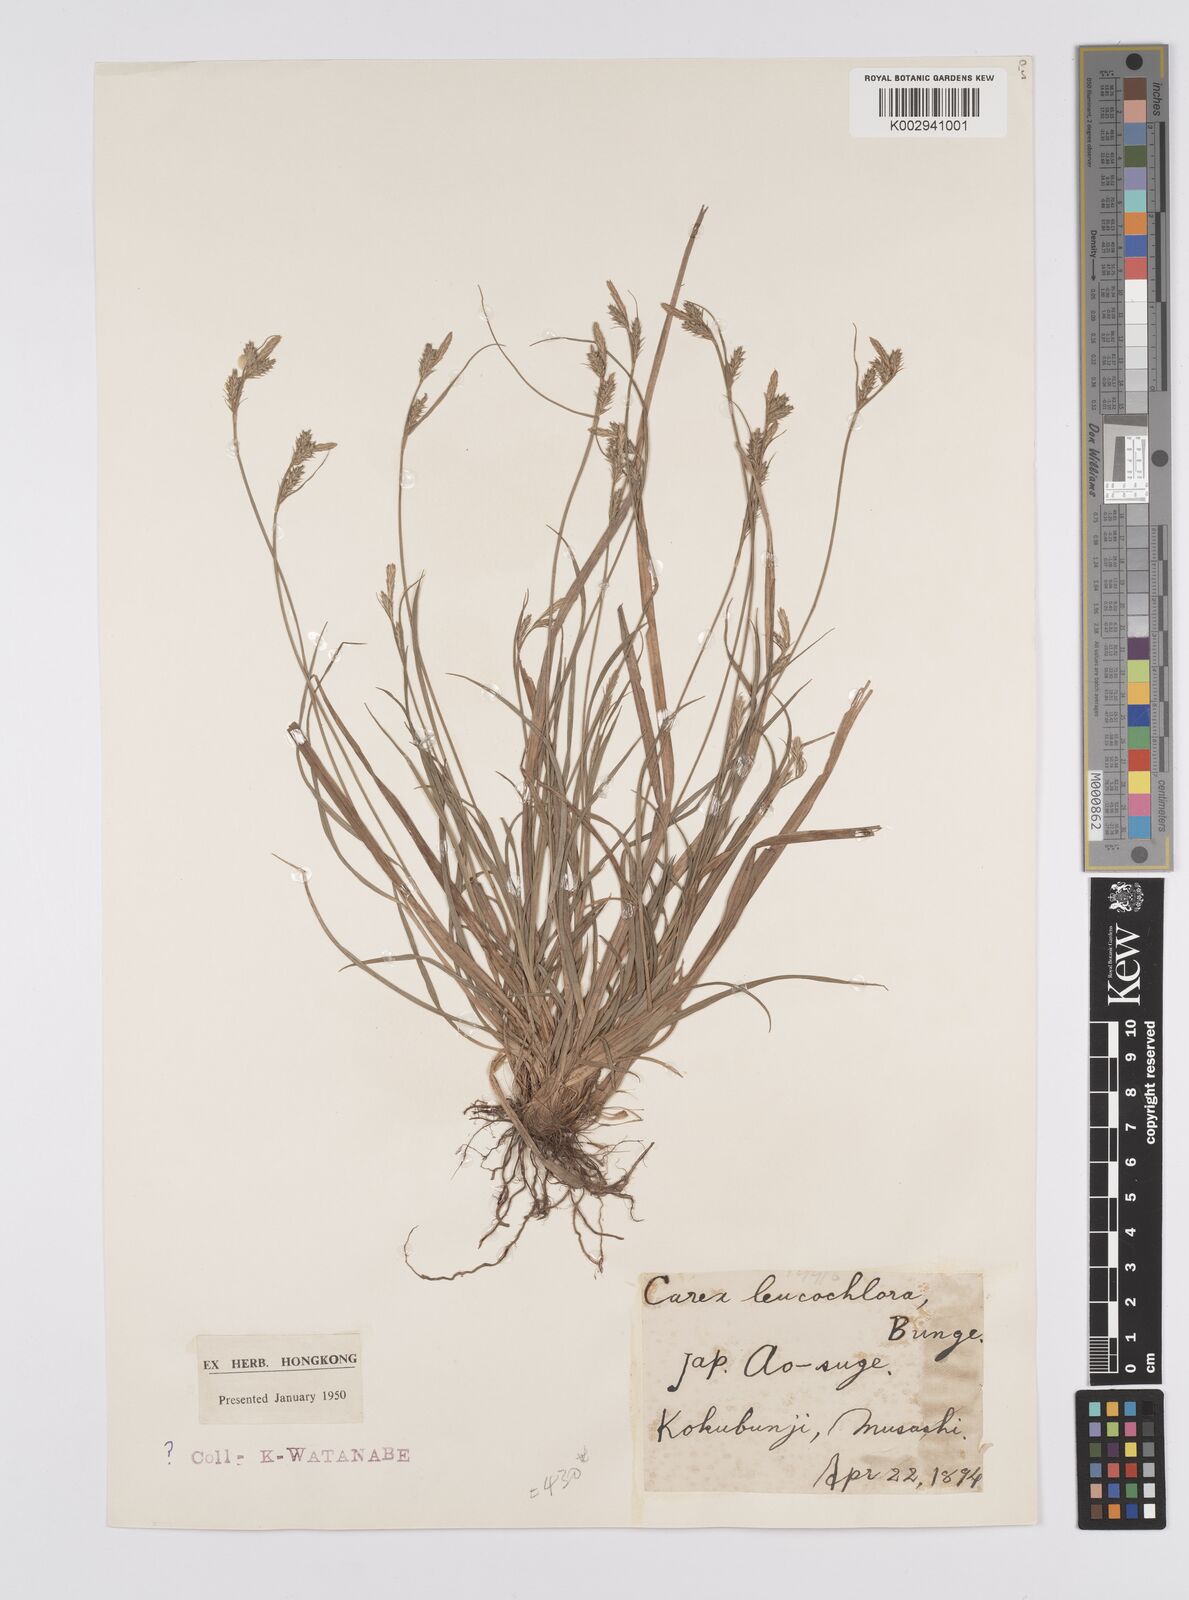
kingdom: Plantae
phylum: Tracheophyta
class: Liliopsida
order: Poales
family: Cyperaceae
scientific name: Cyperaceae
